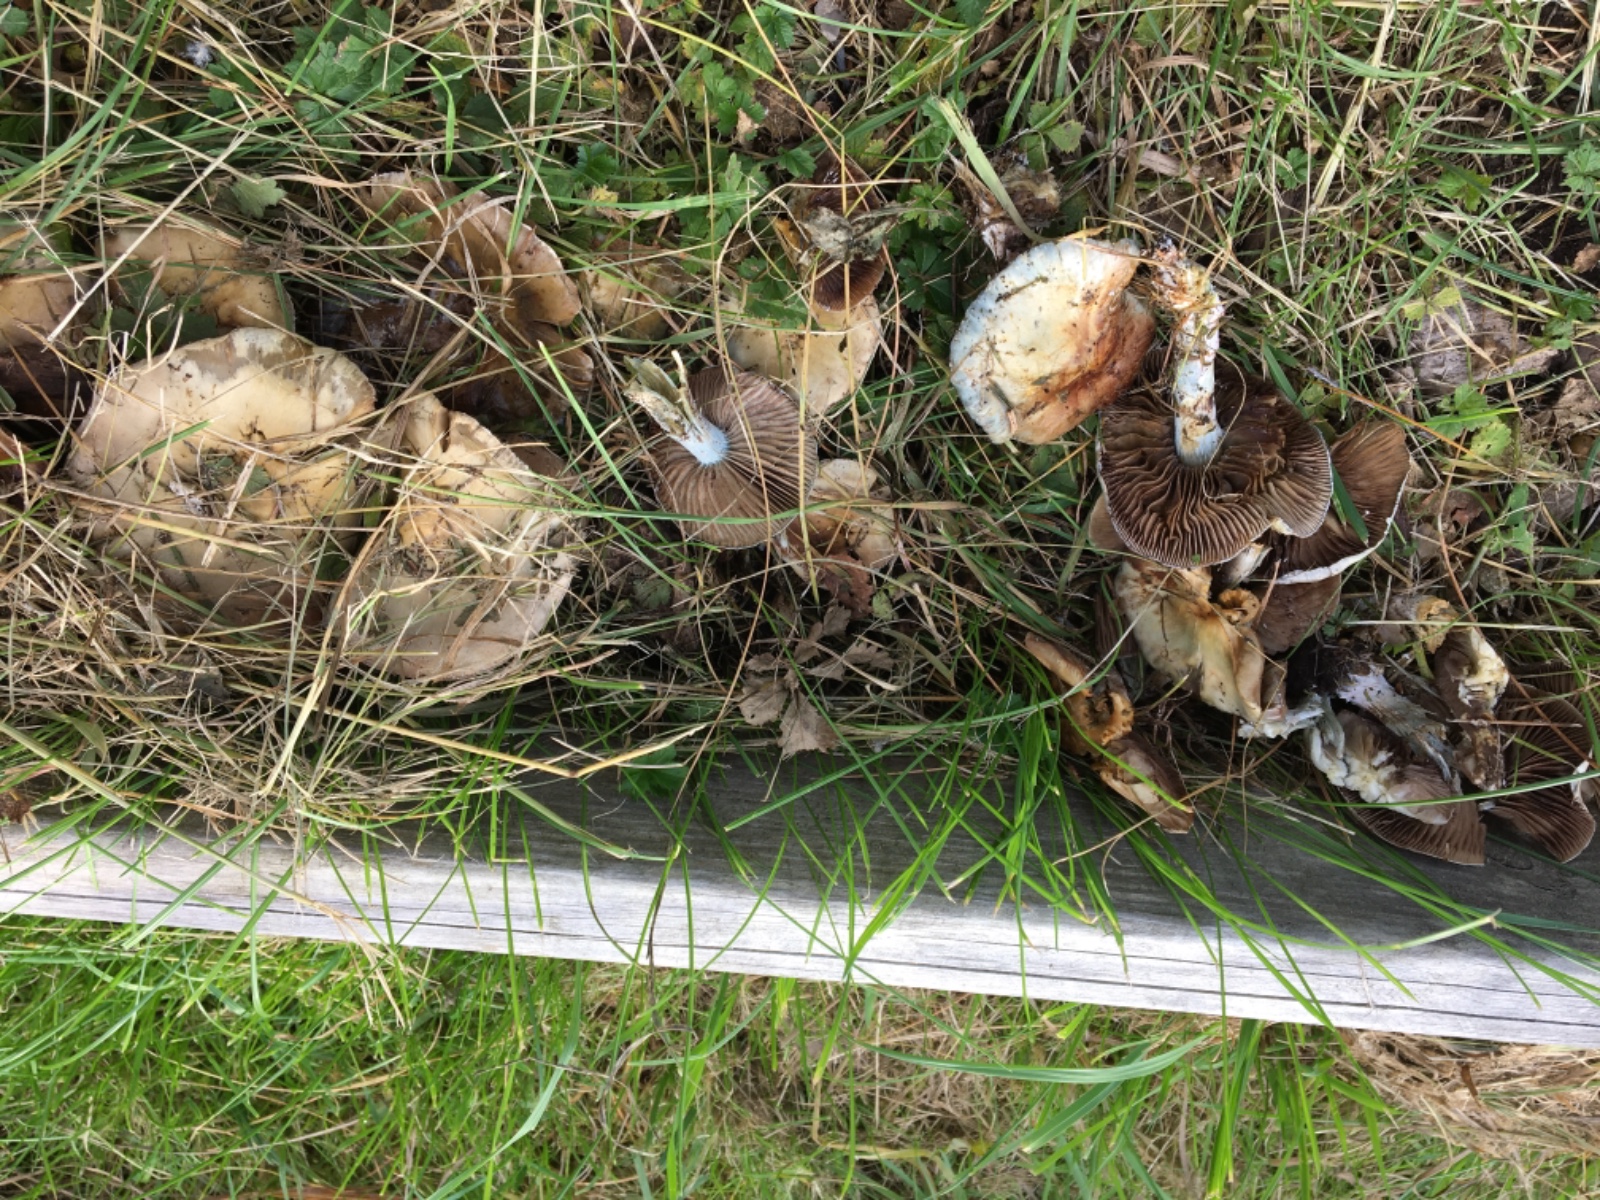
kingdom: Fungi
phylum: Basidiomycota
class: Agaricomycetes
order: Agaricales
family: Strophariaceae
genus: Stropharia
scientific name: Stropharia cyanea
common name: blågrøn bredblad
